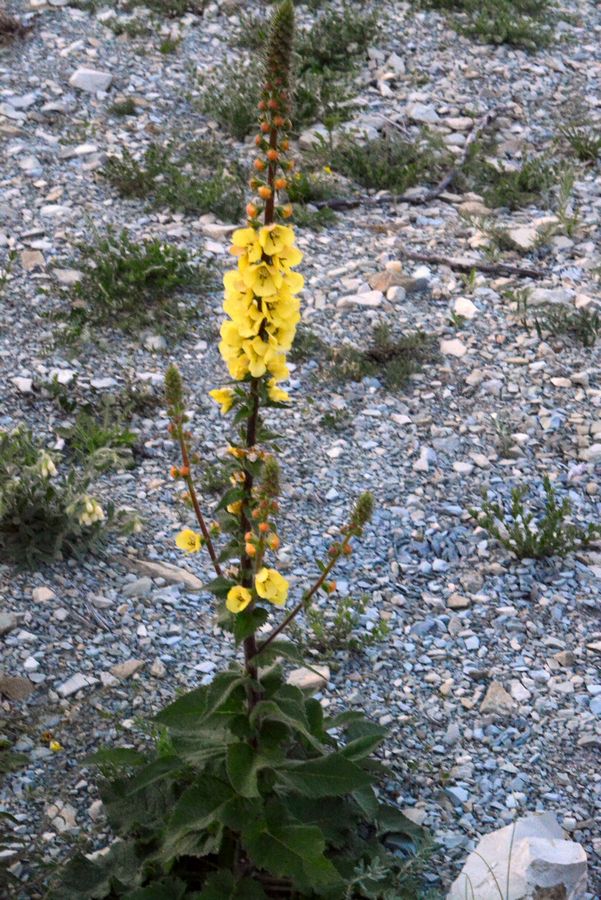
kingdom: Plantae
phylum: Tracheophyta
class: Magnoliopsida
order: Lamiales
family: Scrophulariaceae
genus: Verbascum
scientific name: Verbascum salgirensis
